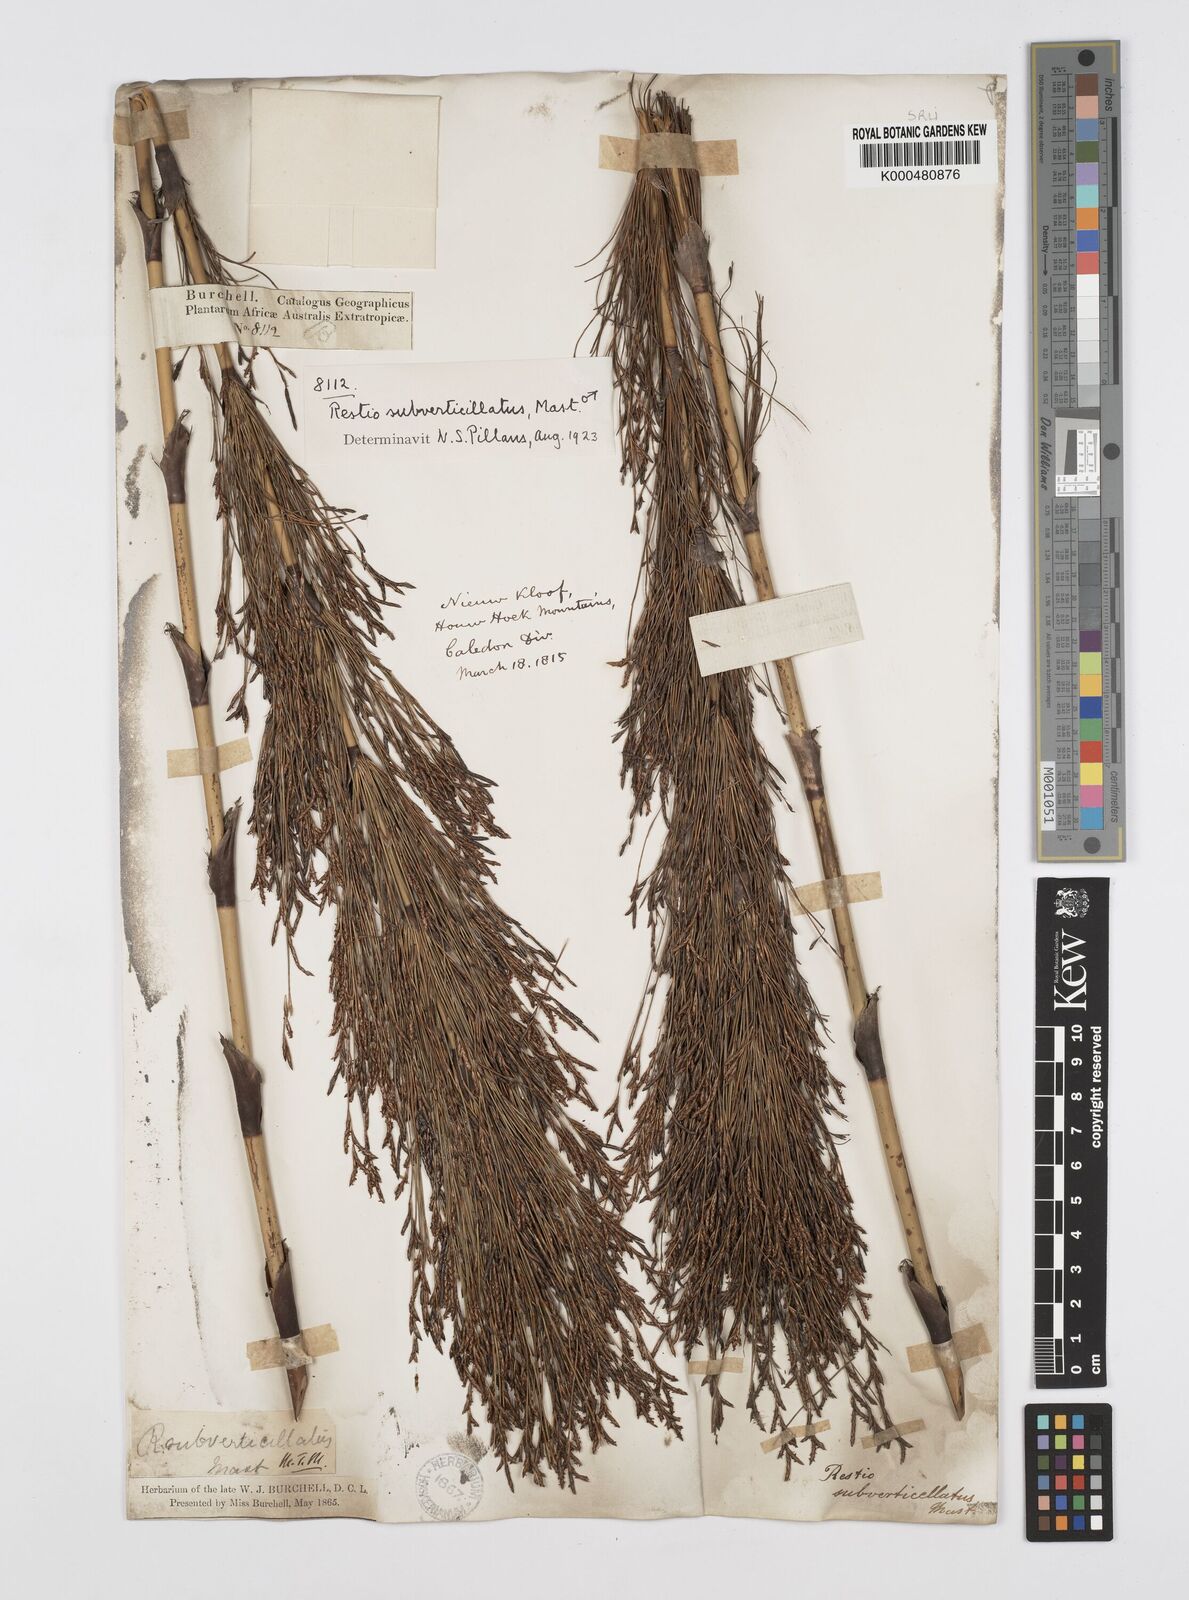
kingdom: Plantae
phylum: Tracheophyta
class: Liliopsida
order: Poales
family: Restionaceae
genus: Restio
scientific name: Restio subverticillatus
